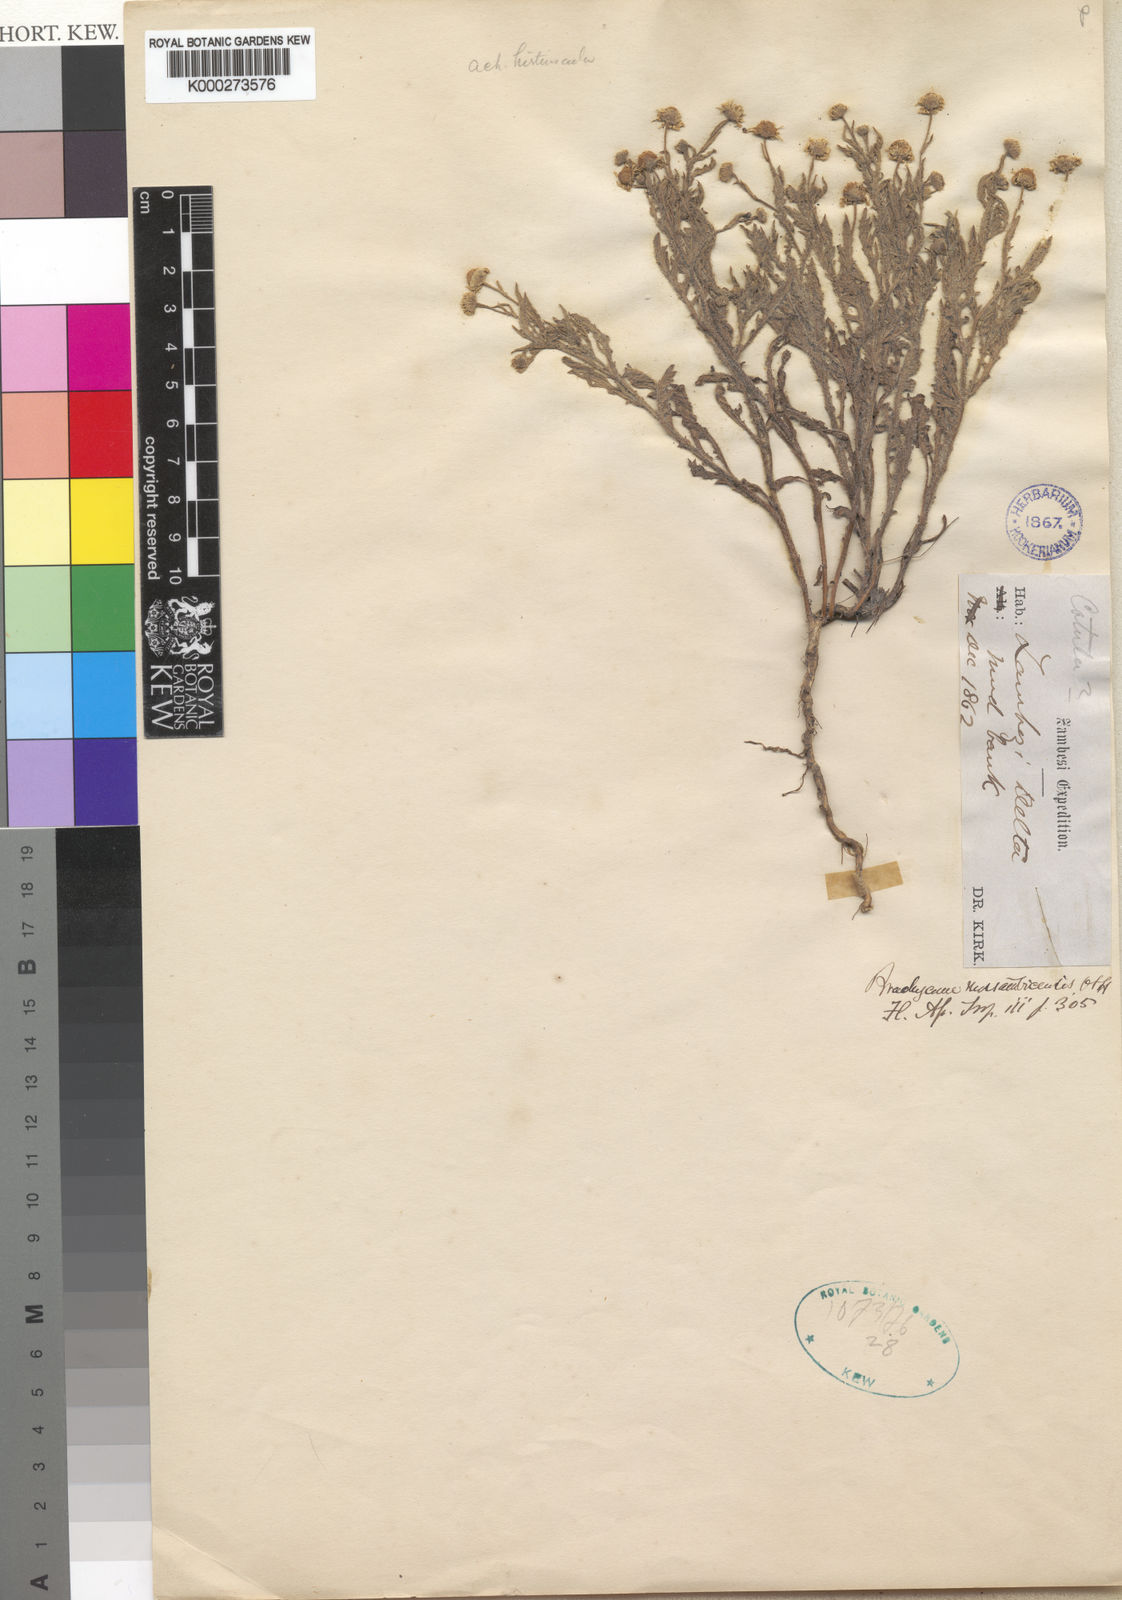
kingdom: Plantae
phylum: Tracheophyta
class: Magnoliopsida
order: Asterales
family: Asteraceae
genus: Gyrodoma
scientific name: Gyrodoma hispida
